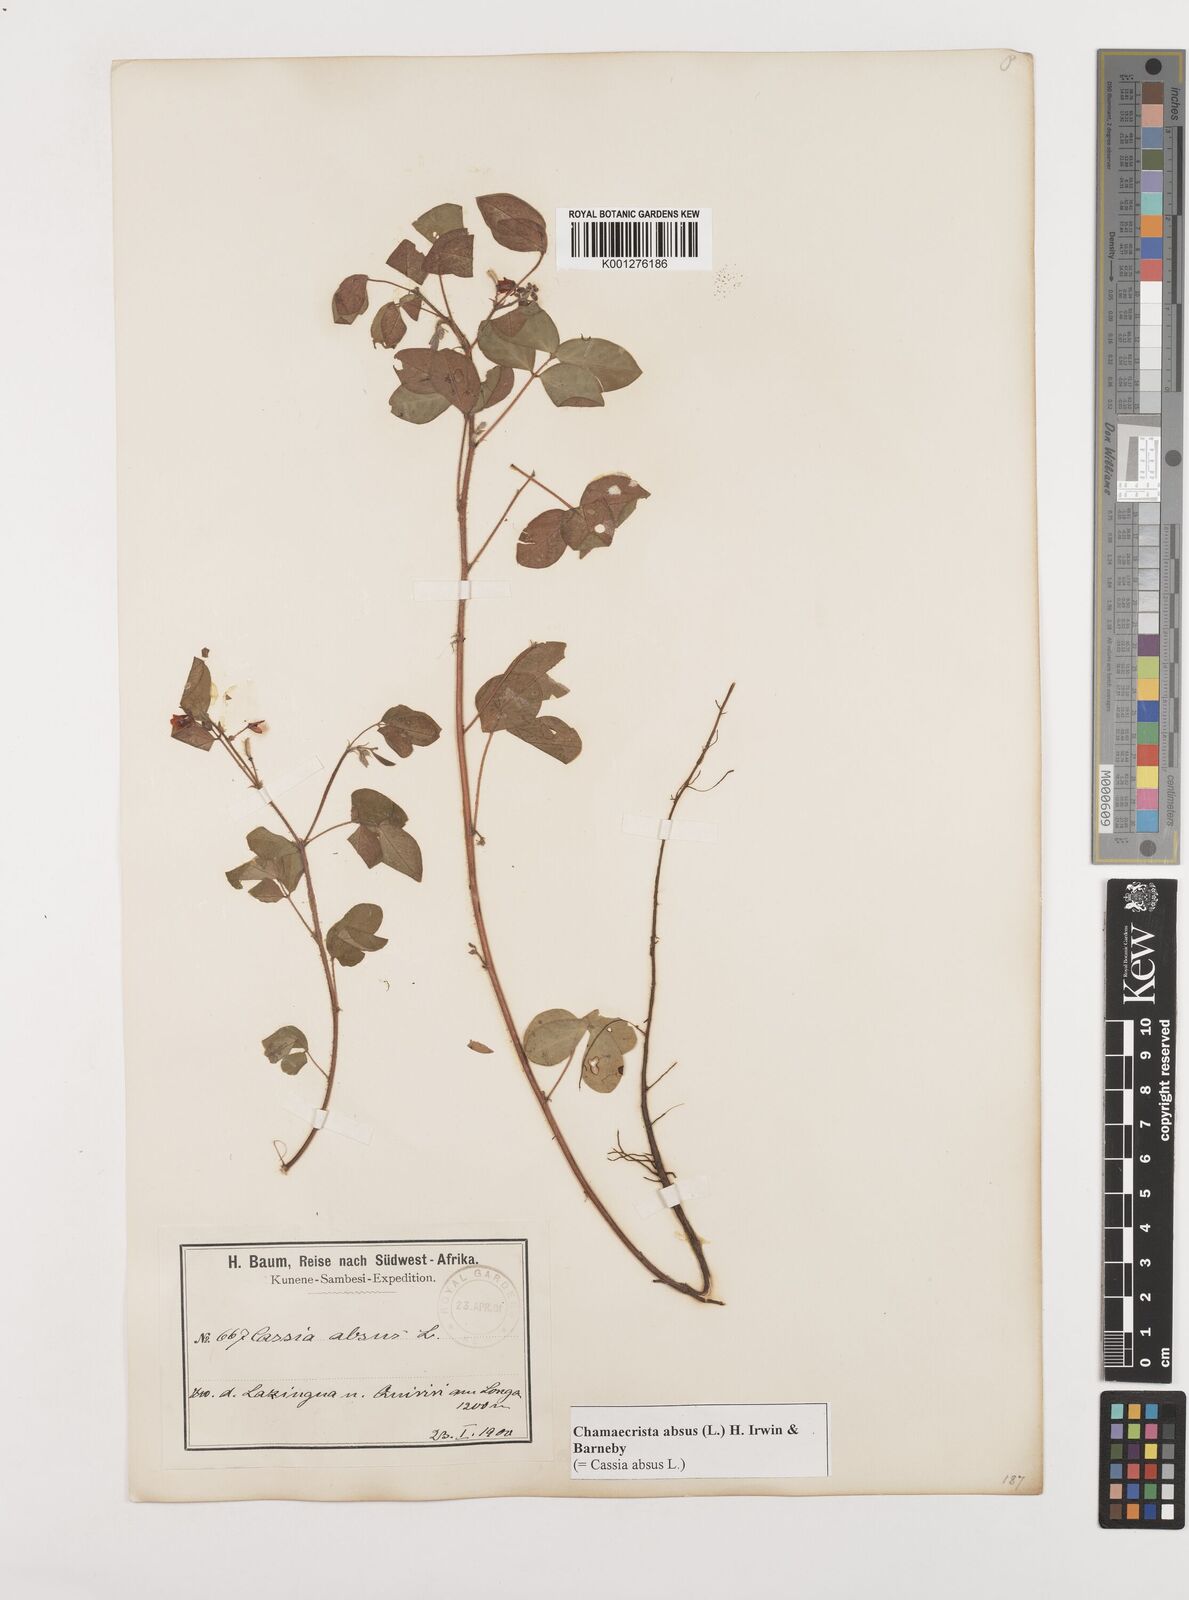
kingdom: Plantae
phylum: Tracheophyta
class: Magnoliopsida
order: Fabales
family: Fabaceae
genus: Chamaecrista
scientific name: Chamaecrista absus
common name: Tropical sensitive pea
